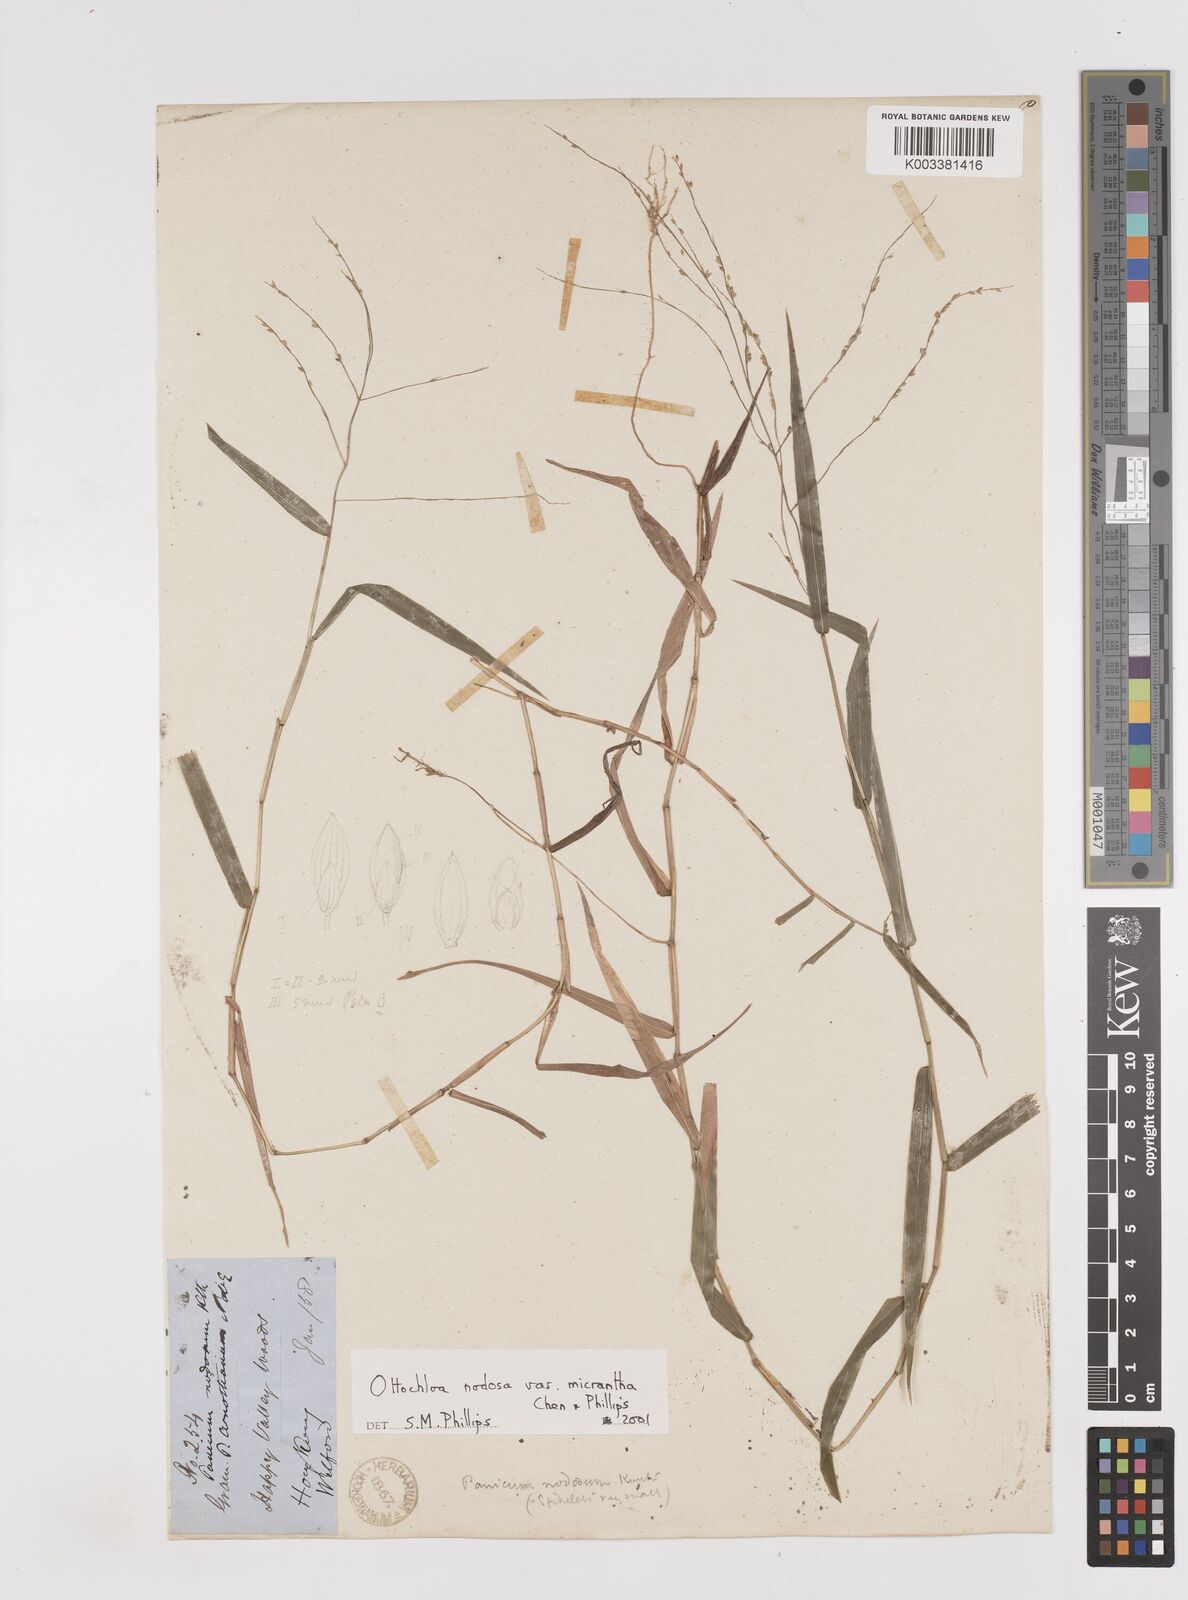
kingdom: Plantae
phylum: Tracheophyta
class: Liliopsida
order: Poales
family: Poaceae
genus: Ottochloa
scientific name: Ottochloa nodosa
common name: Slender-panic grass
